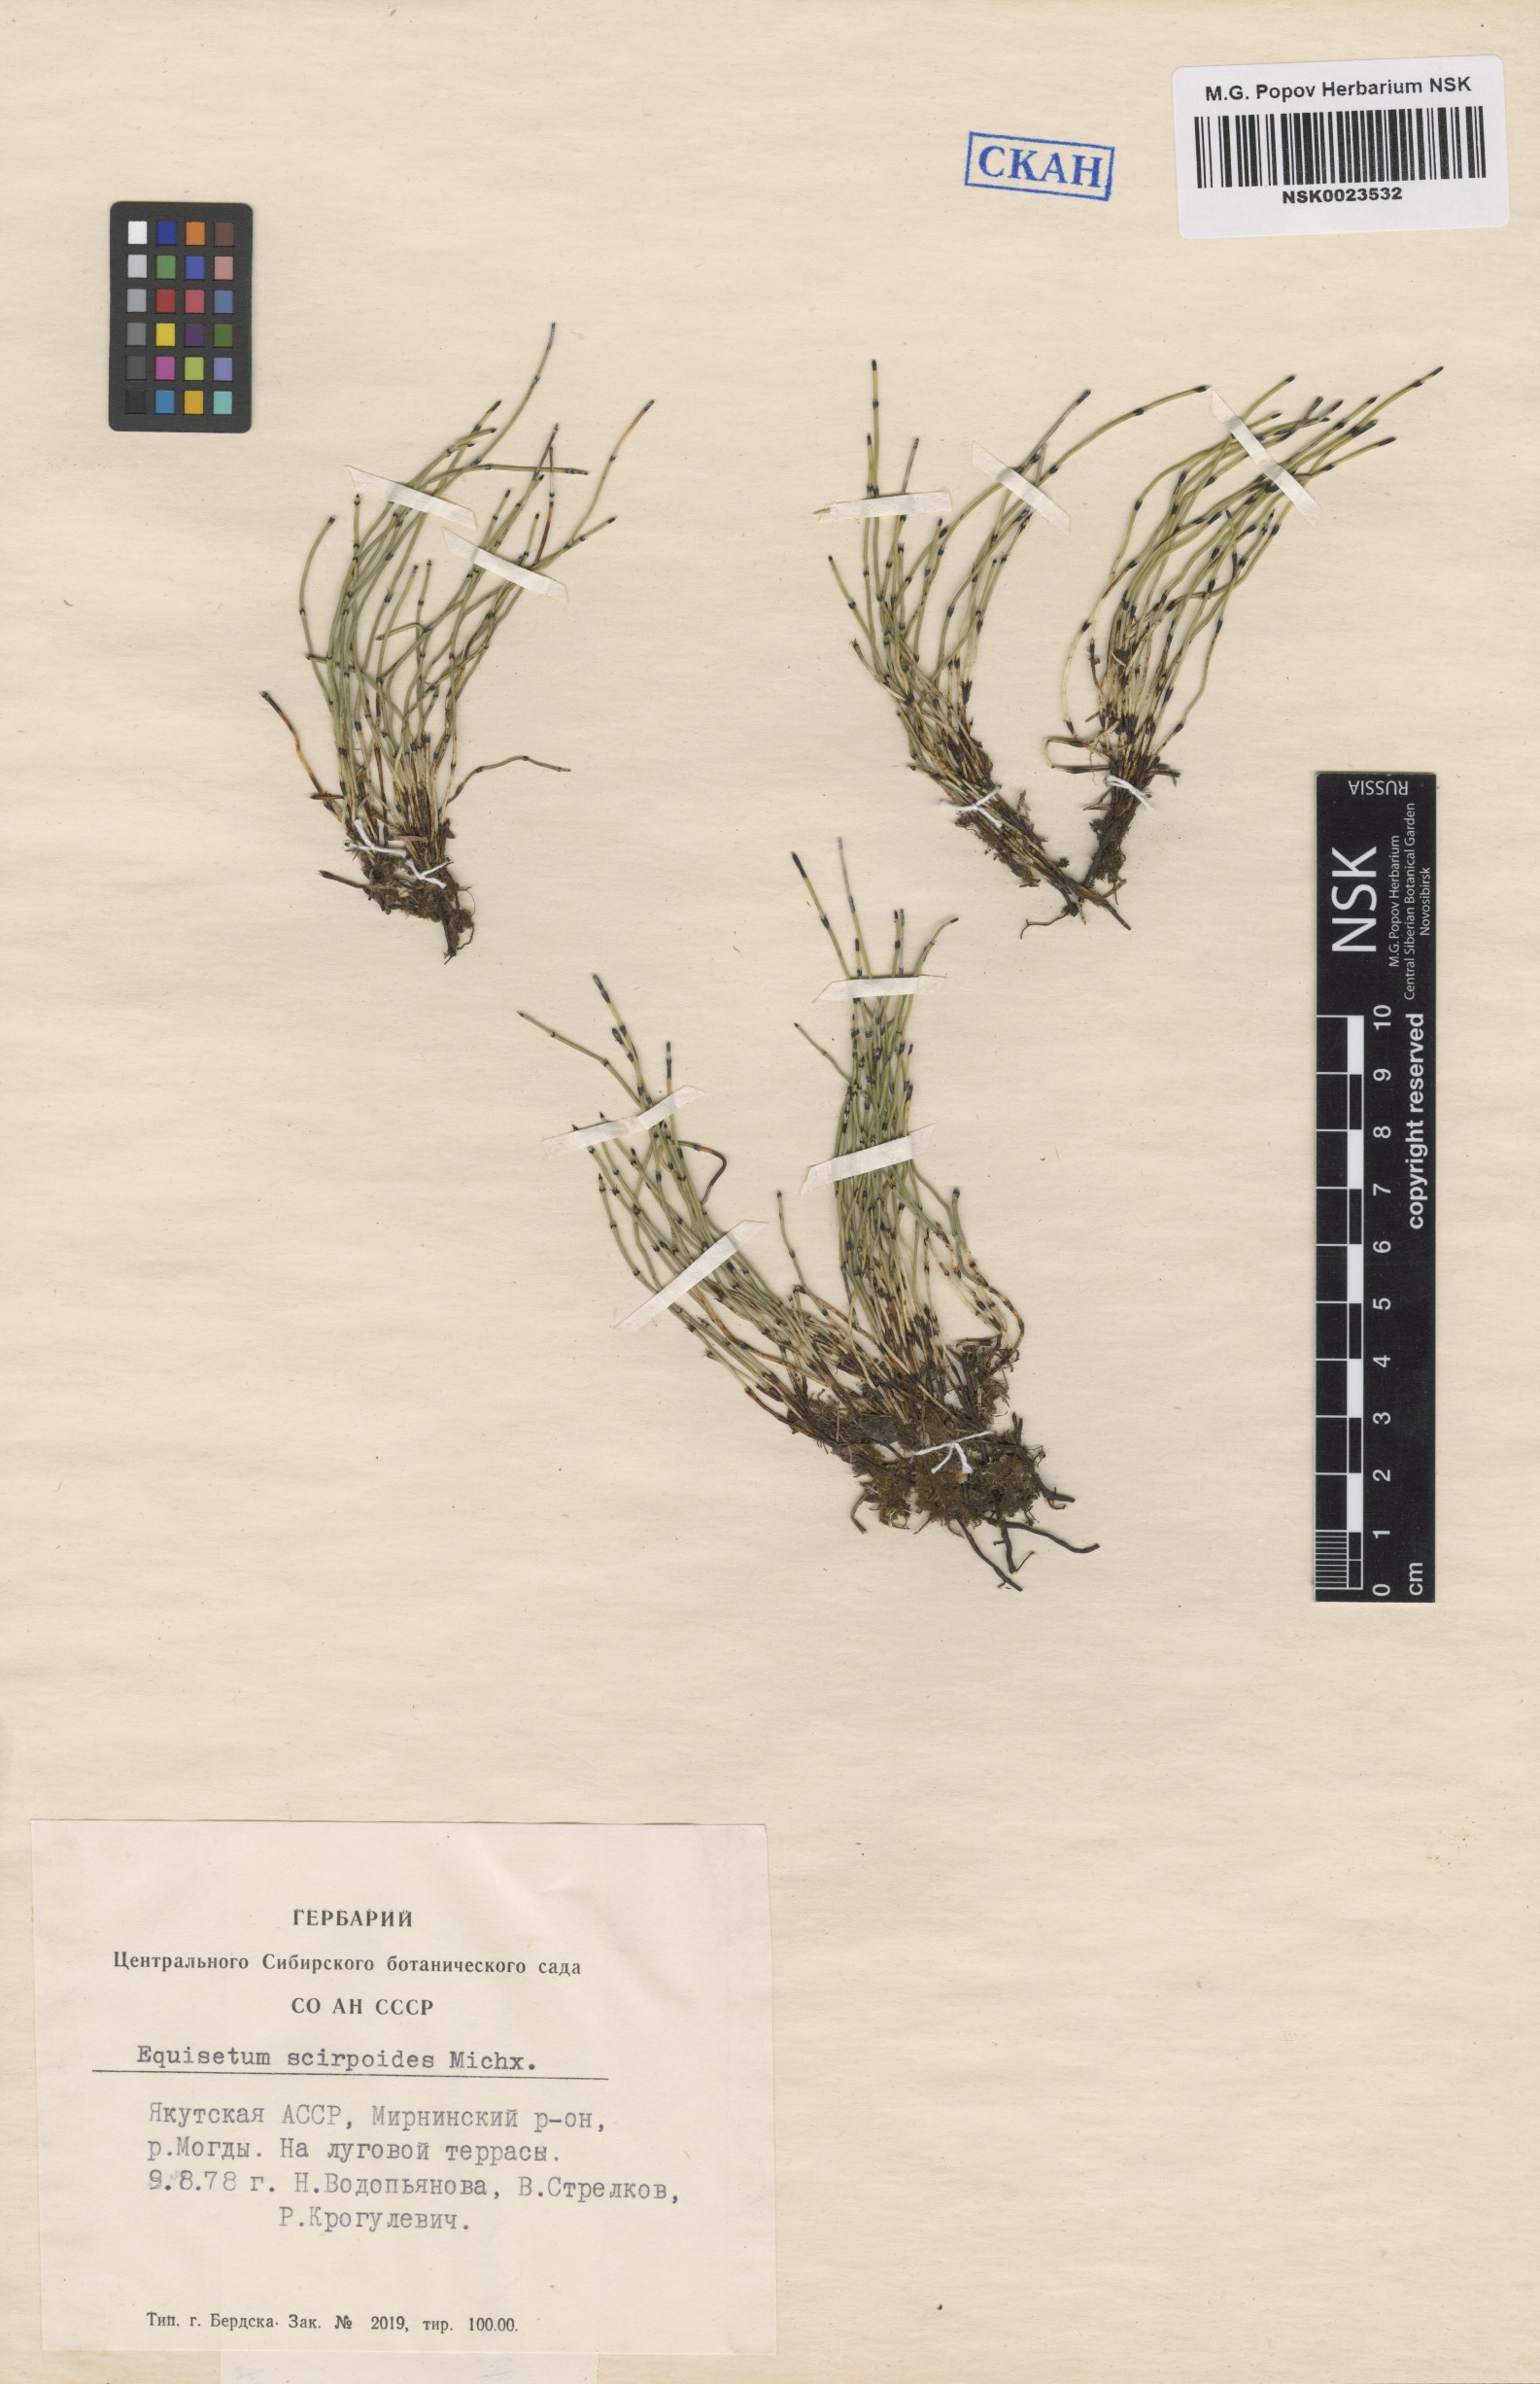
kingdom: Plantae
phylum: Tracheophyta
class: Polypodiopsida
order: Equisetales
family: Equisetaceae
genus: Equisetum
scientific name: Equisetum scirpoides
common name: Delicate horsetail
